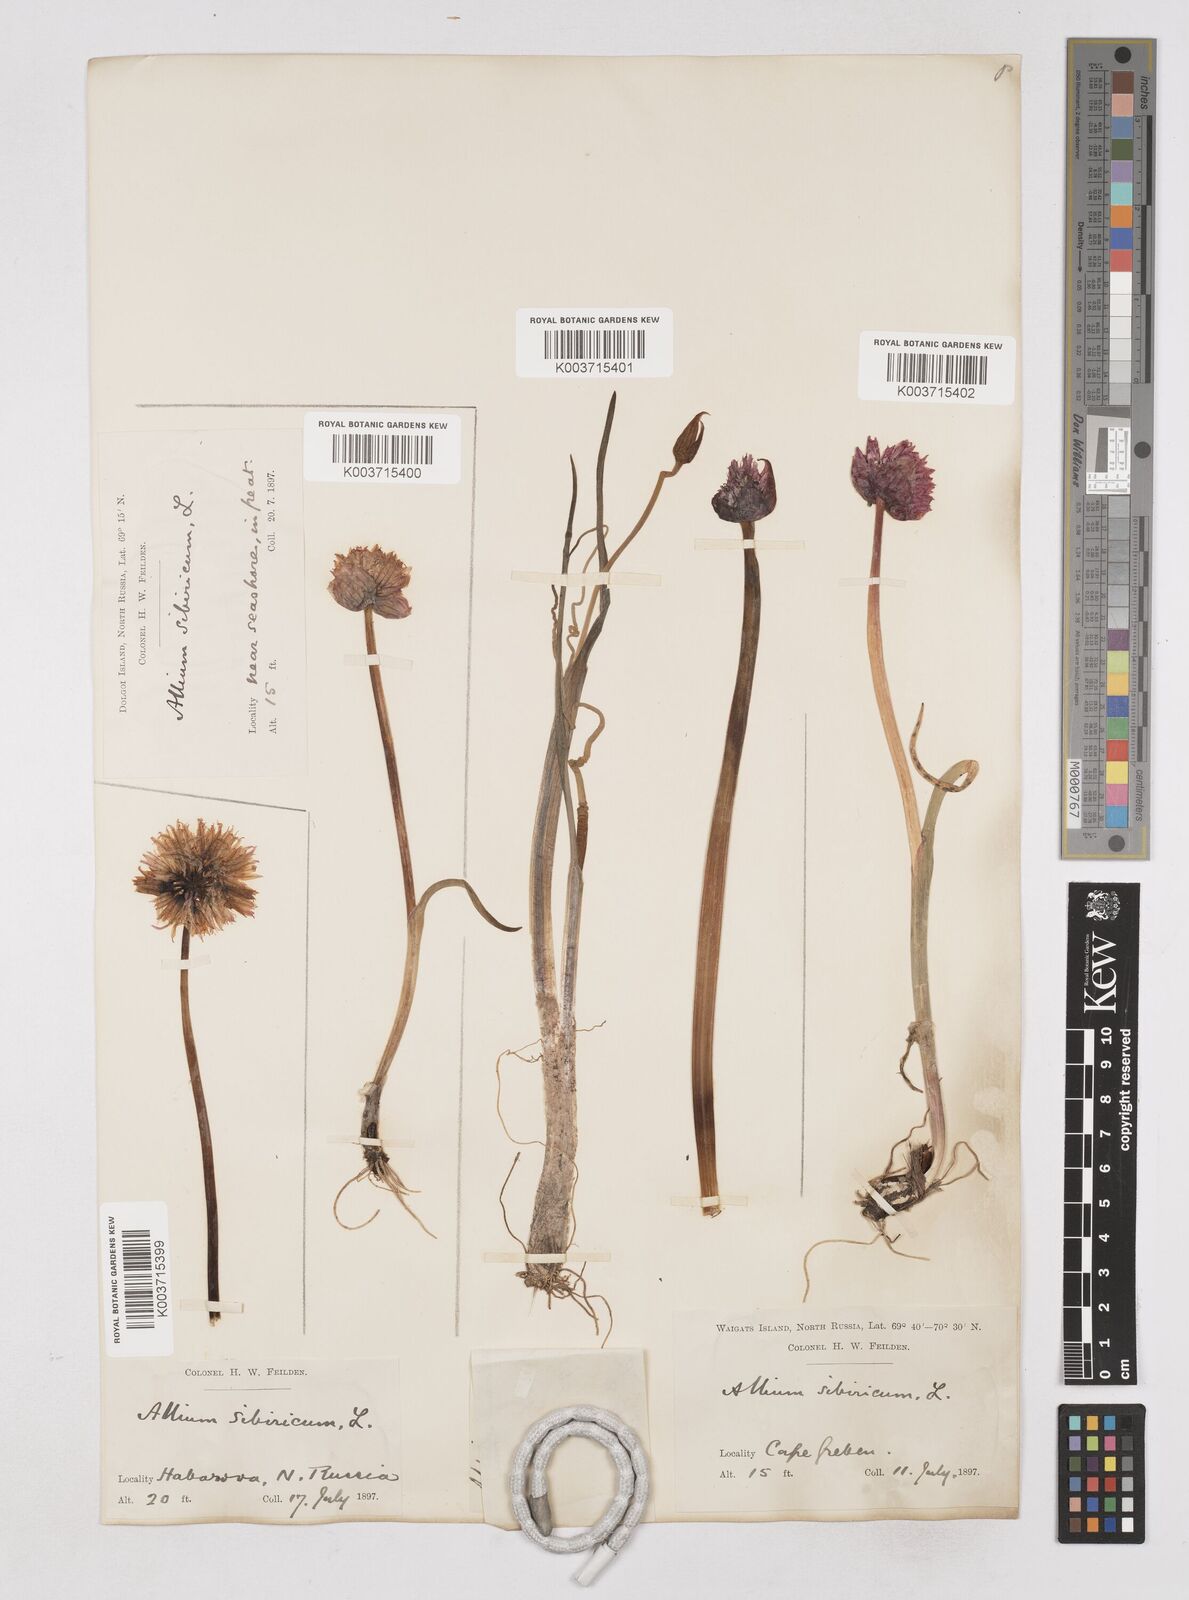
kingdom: Plantae
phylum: Tracheophyta
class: Liliopsida
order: Asparagales
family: Amaryllidaceae
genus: Allium
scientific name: Allium schoenoprasum
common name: Chives
